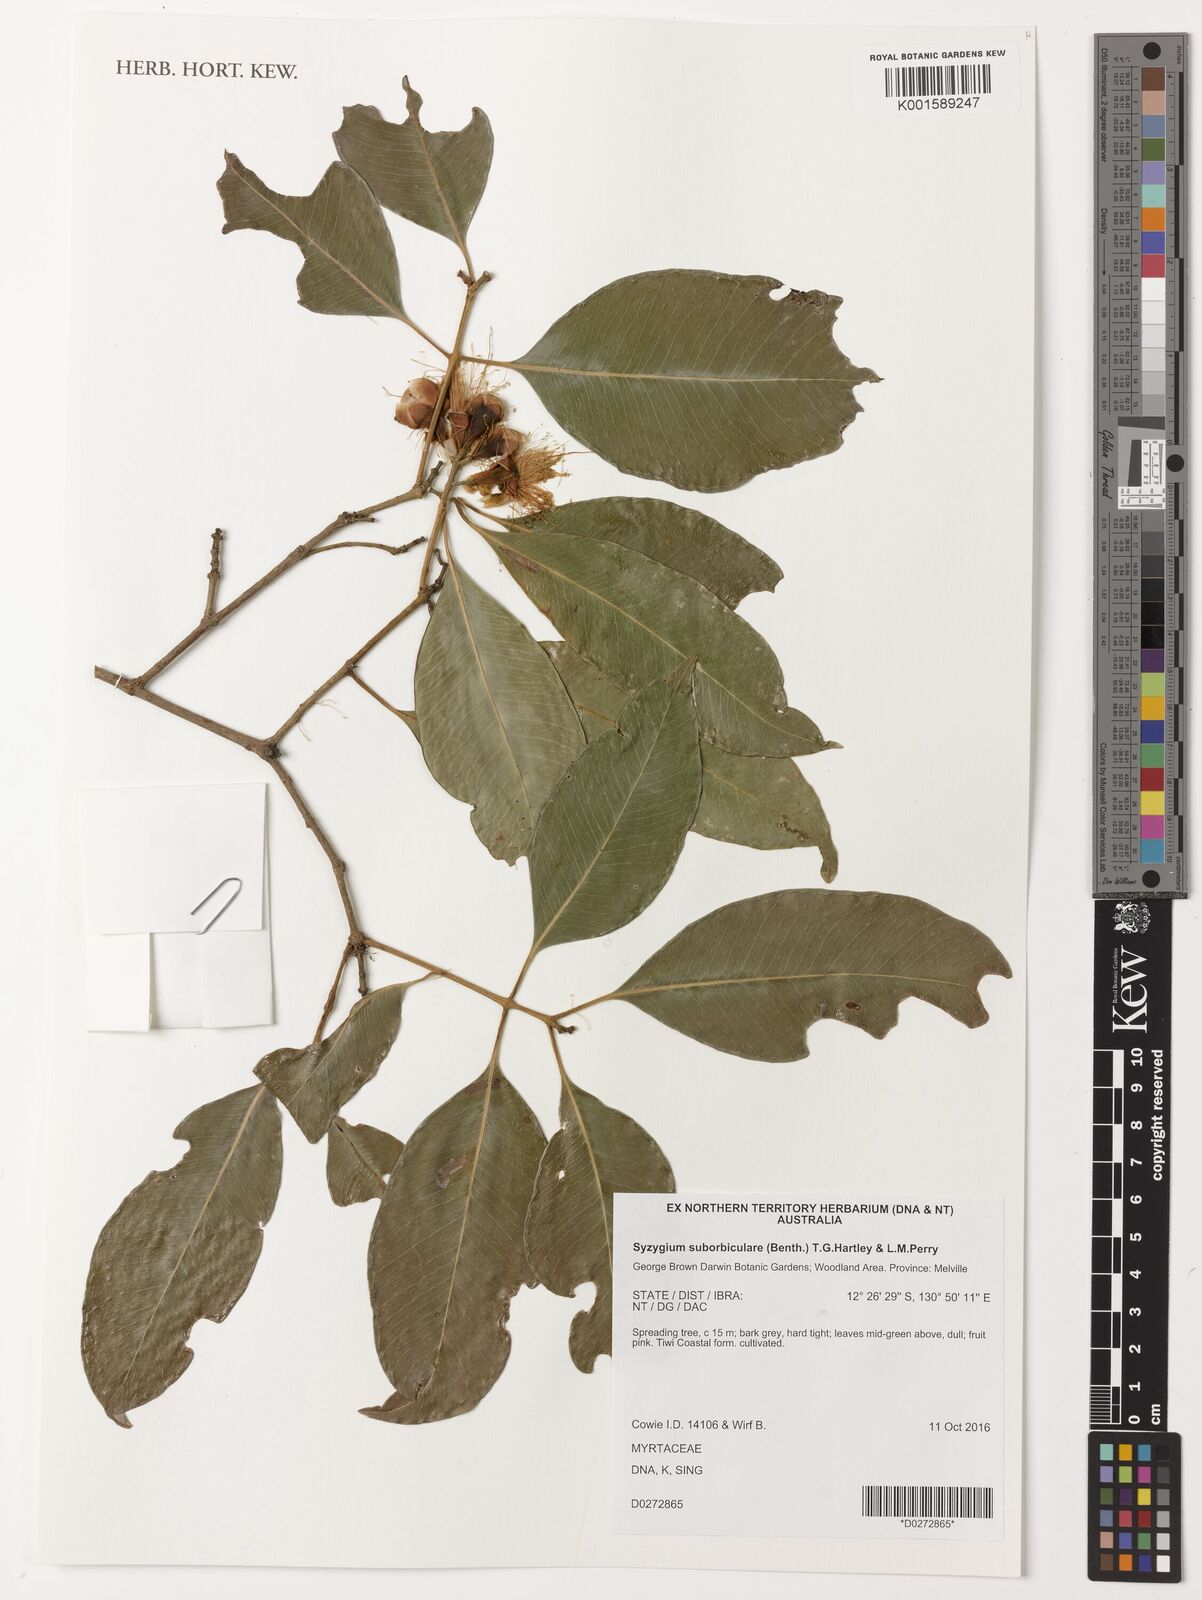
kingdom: Plantae
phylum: Tracheophyta
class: Magnoliopsida
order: Myrtales
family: Myrtaceae
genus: Syzygium
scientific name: Syzygium suborbiculare
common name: Red bush apple
